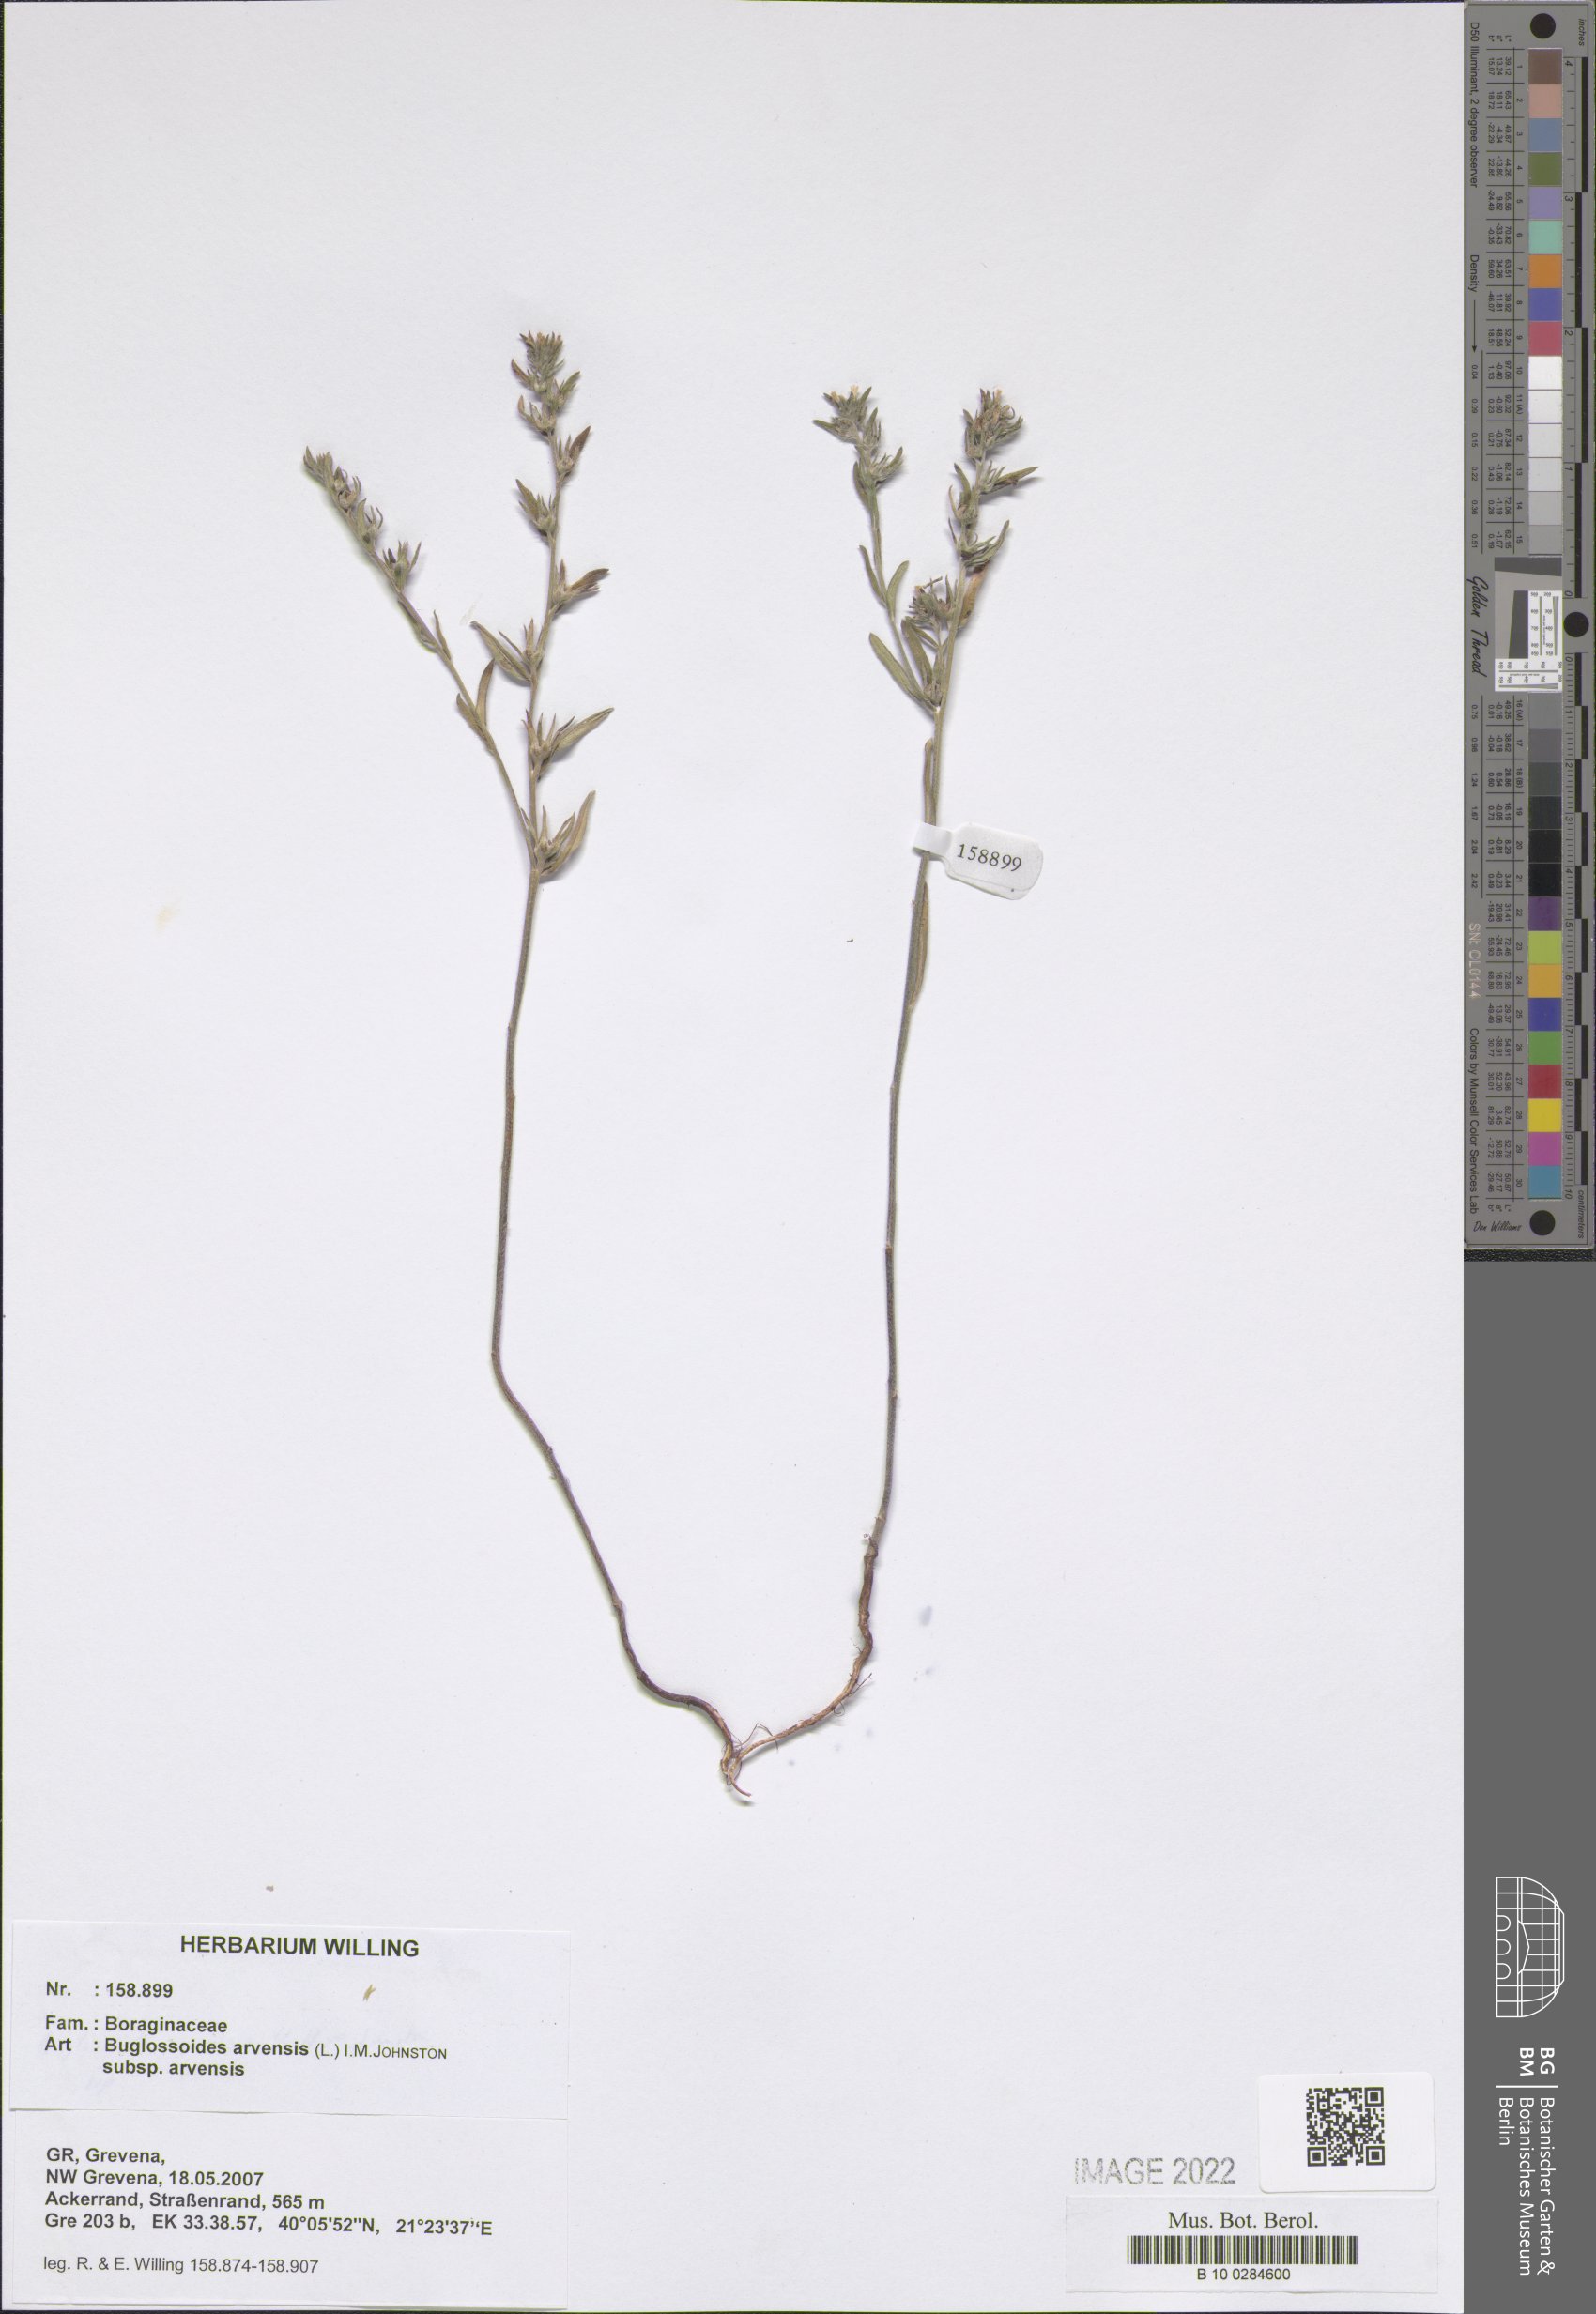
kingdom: Plantae
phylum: Tracheophyta
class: Magnoliopsida
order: Boraginales
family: Boraginaceae
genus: Buglossoides
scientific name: Buglossoides arvensis
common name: Corn gromwell
